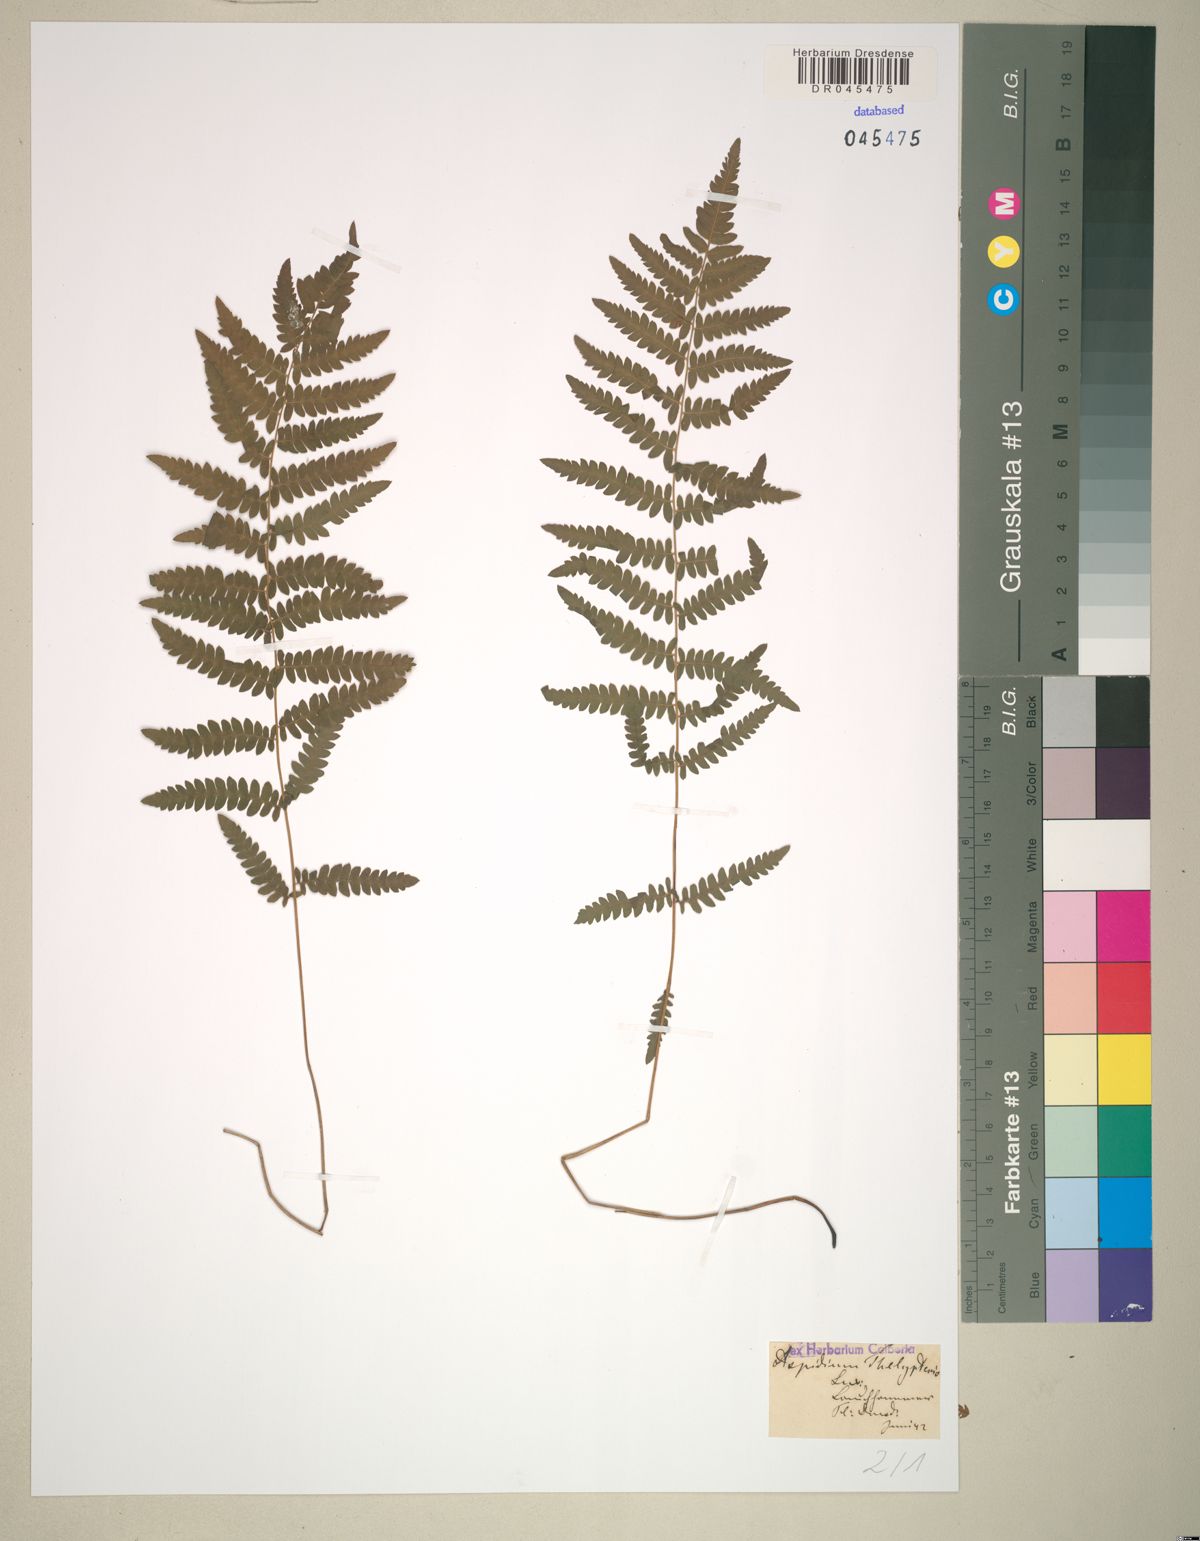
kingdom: Plantae
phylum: Tracheophyta
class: Polypodiopsida
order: Polypodiales
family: Thelypteridaceae
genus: Thelypteris
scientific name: Thelypteris palustris
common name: Marsh fern
